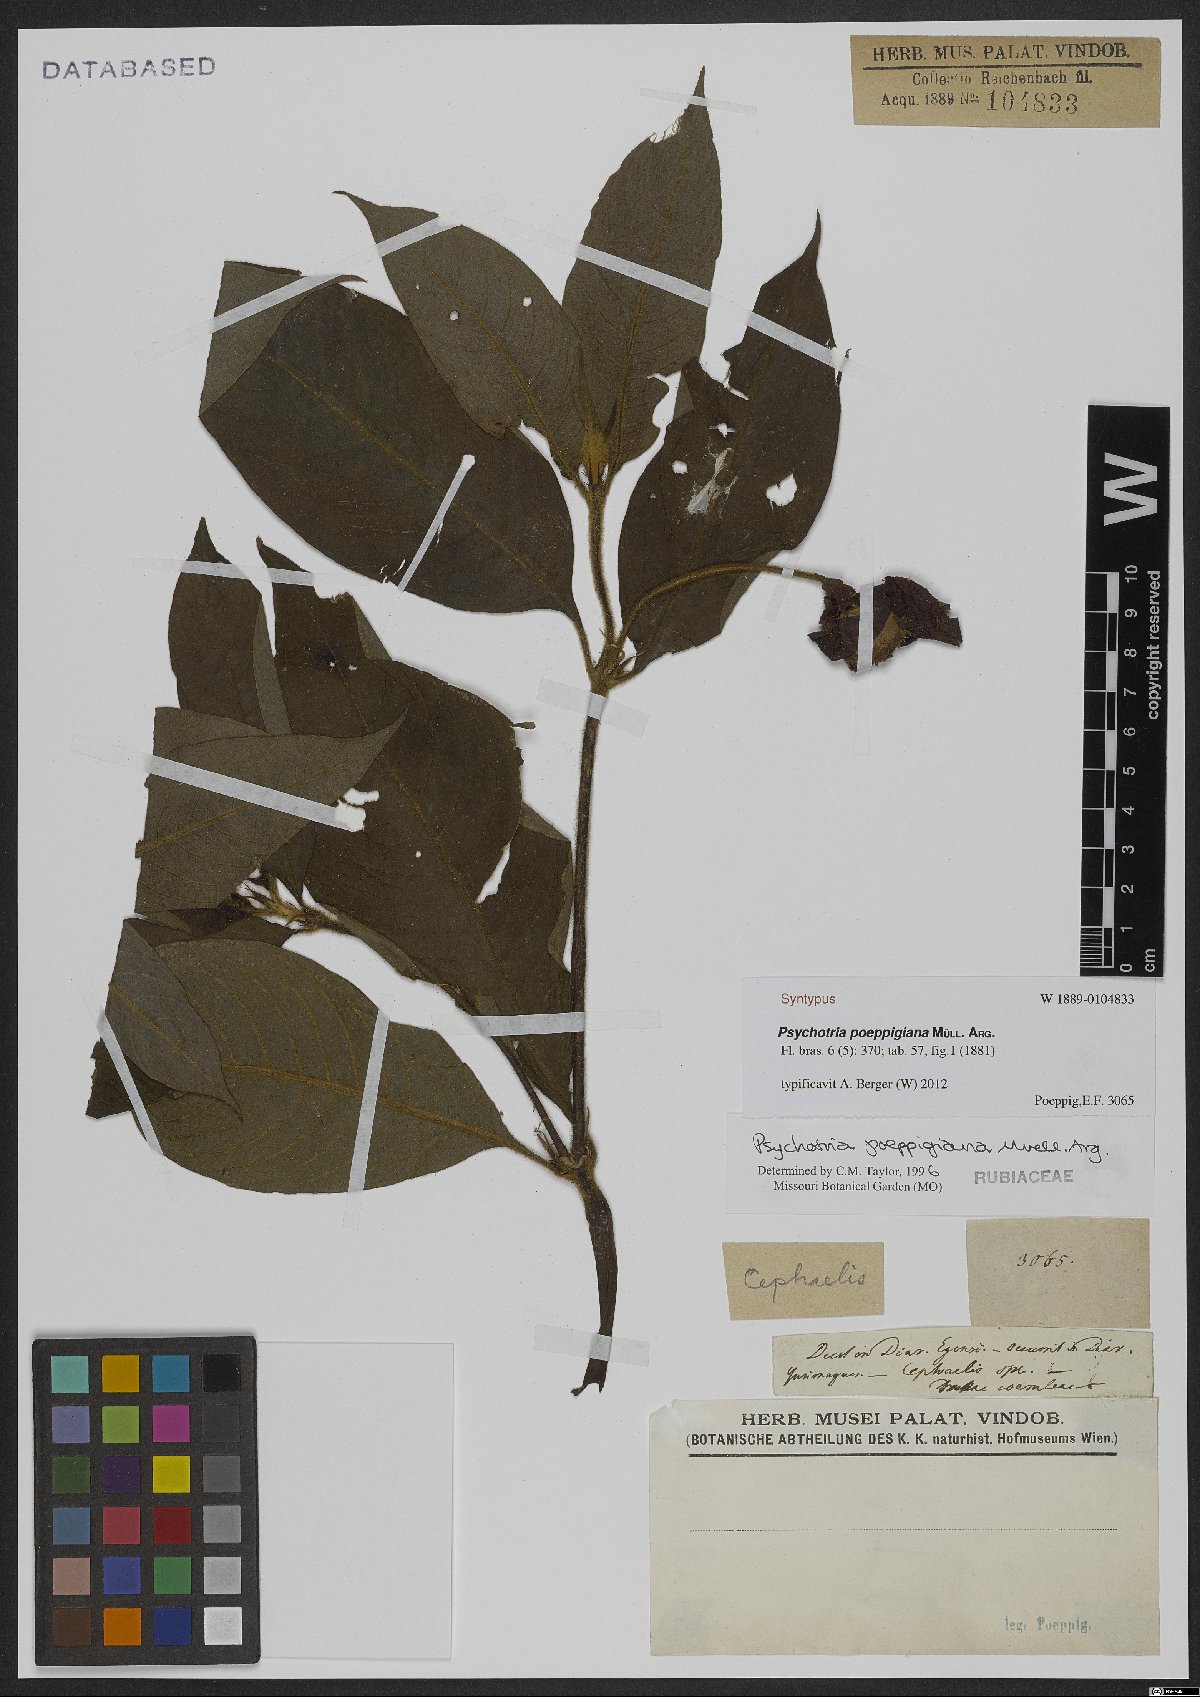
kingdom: Plantae
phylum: Tracheophyta
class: Magnoliopsida
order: Gentianales
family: Rubiaceae
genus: Palicourea
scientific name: Palicourea tomentosa
